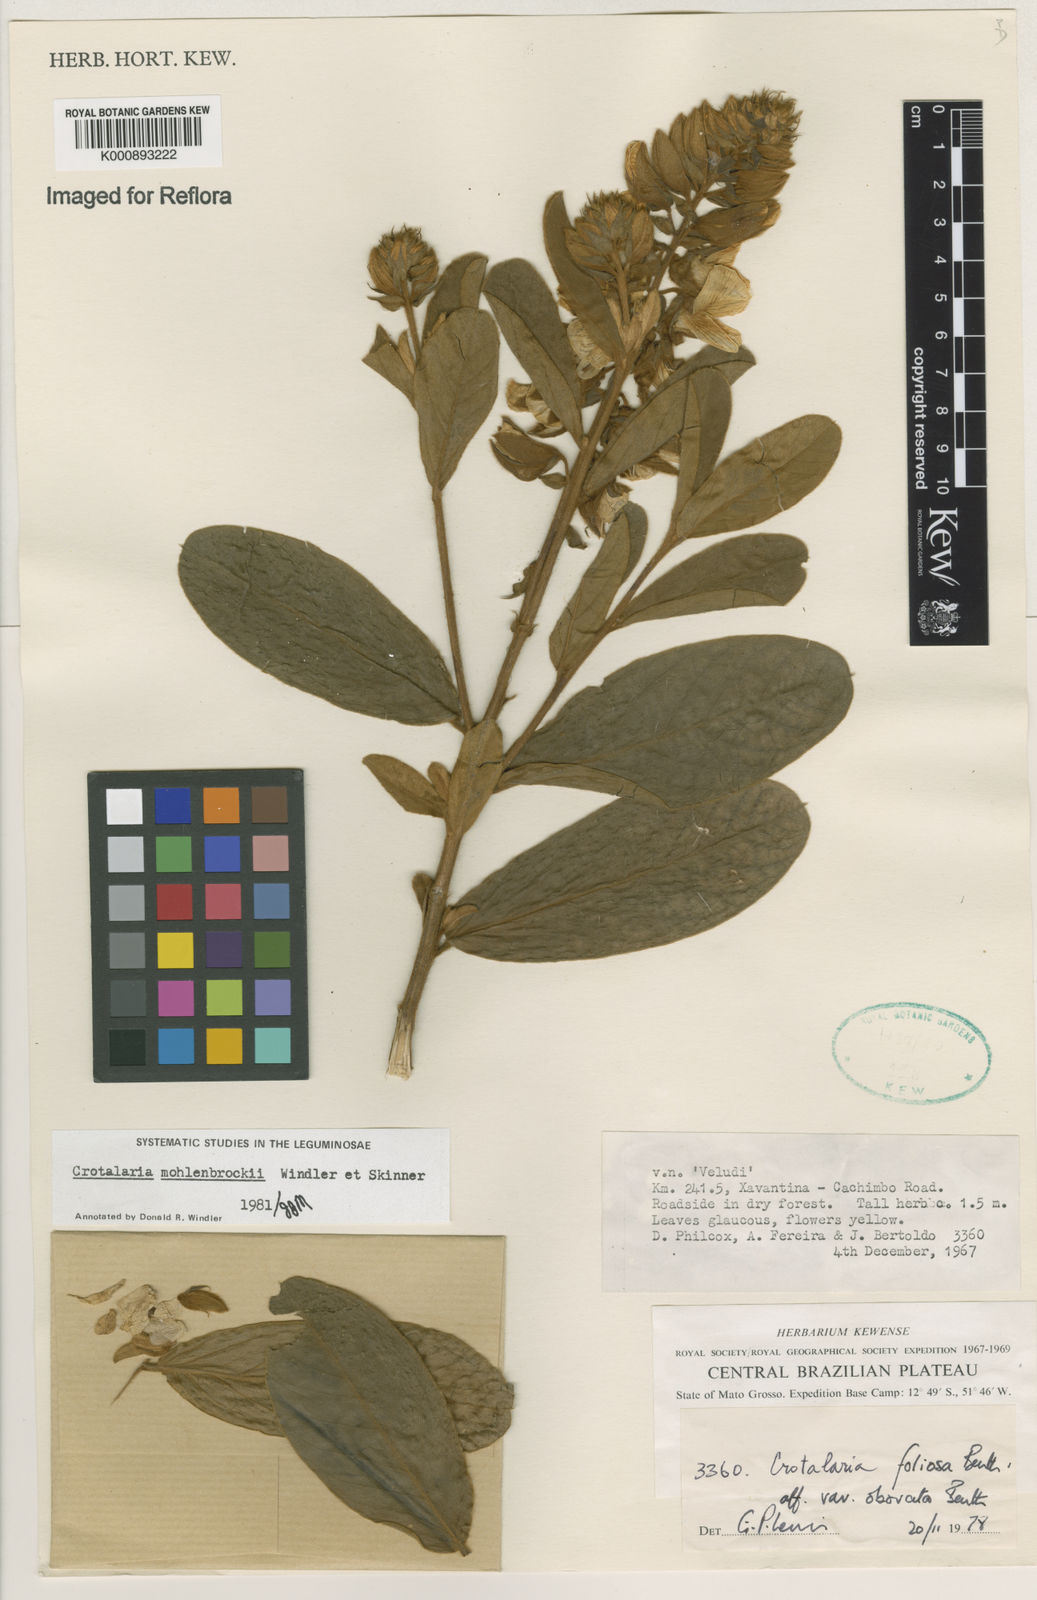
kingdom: Plantae
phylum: Tracheophyta
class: Magnoliopsida
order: Fabales
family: Fabaceae
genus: Crotalaria
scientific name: Crotalaria martiana
